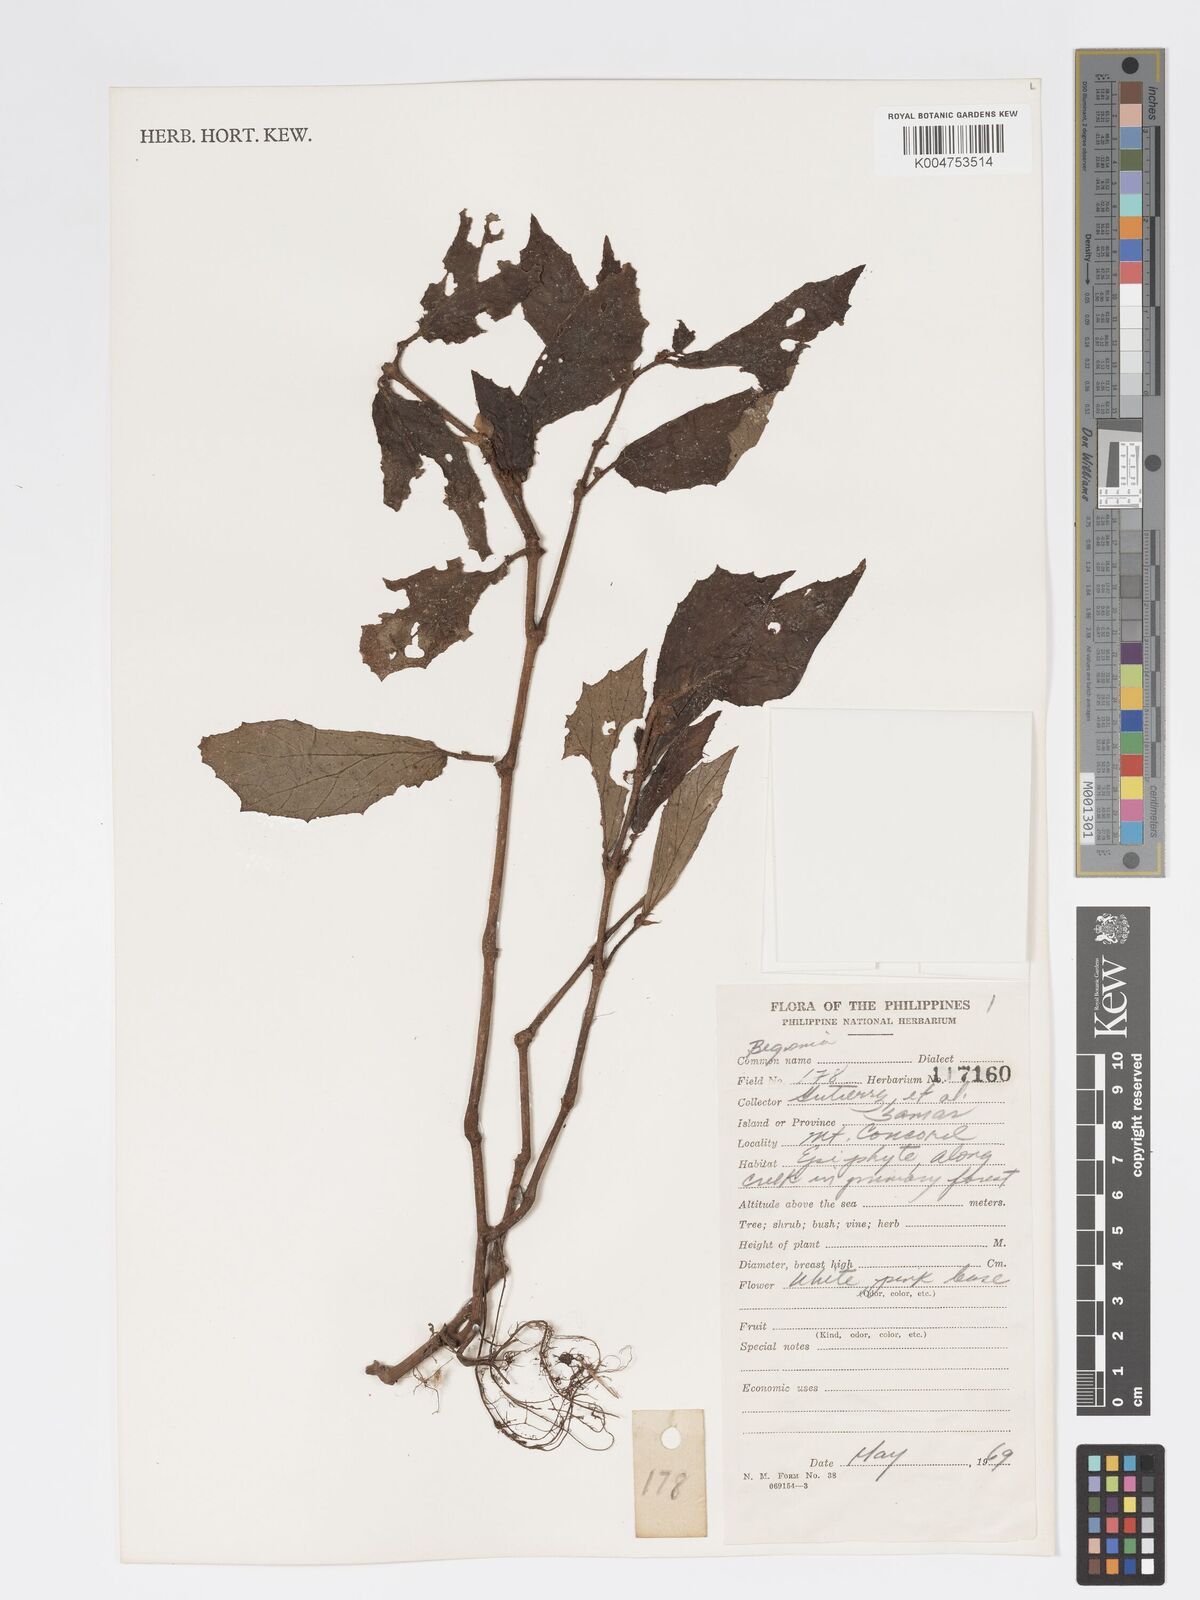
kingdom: Plantae
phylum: Tracheophyta
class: Magnoliopsida
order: Cucurbitales
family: Begoniaceae
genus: Begonia
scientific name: Begonia
